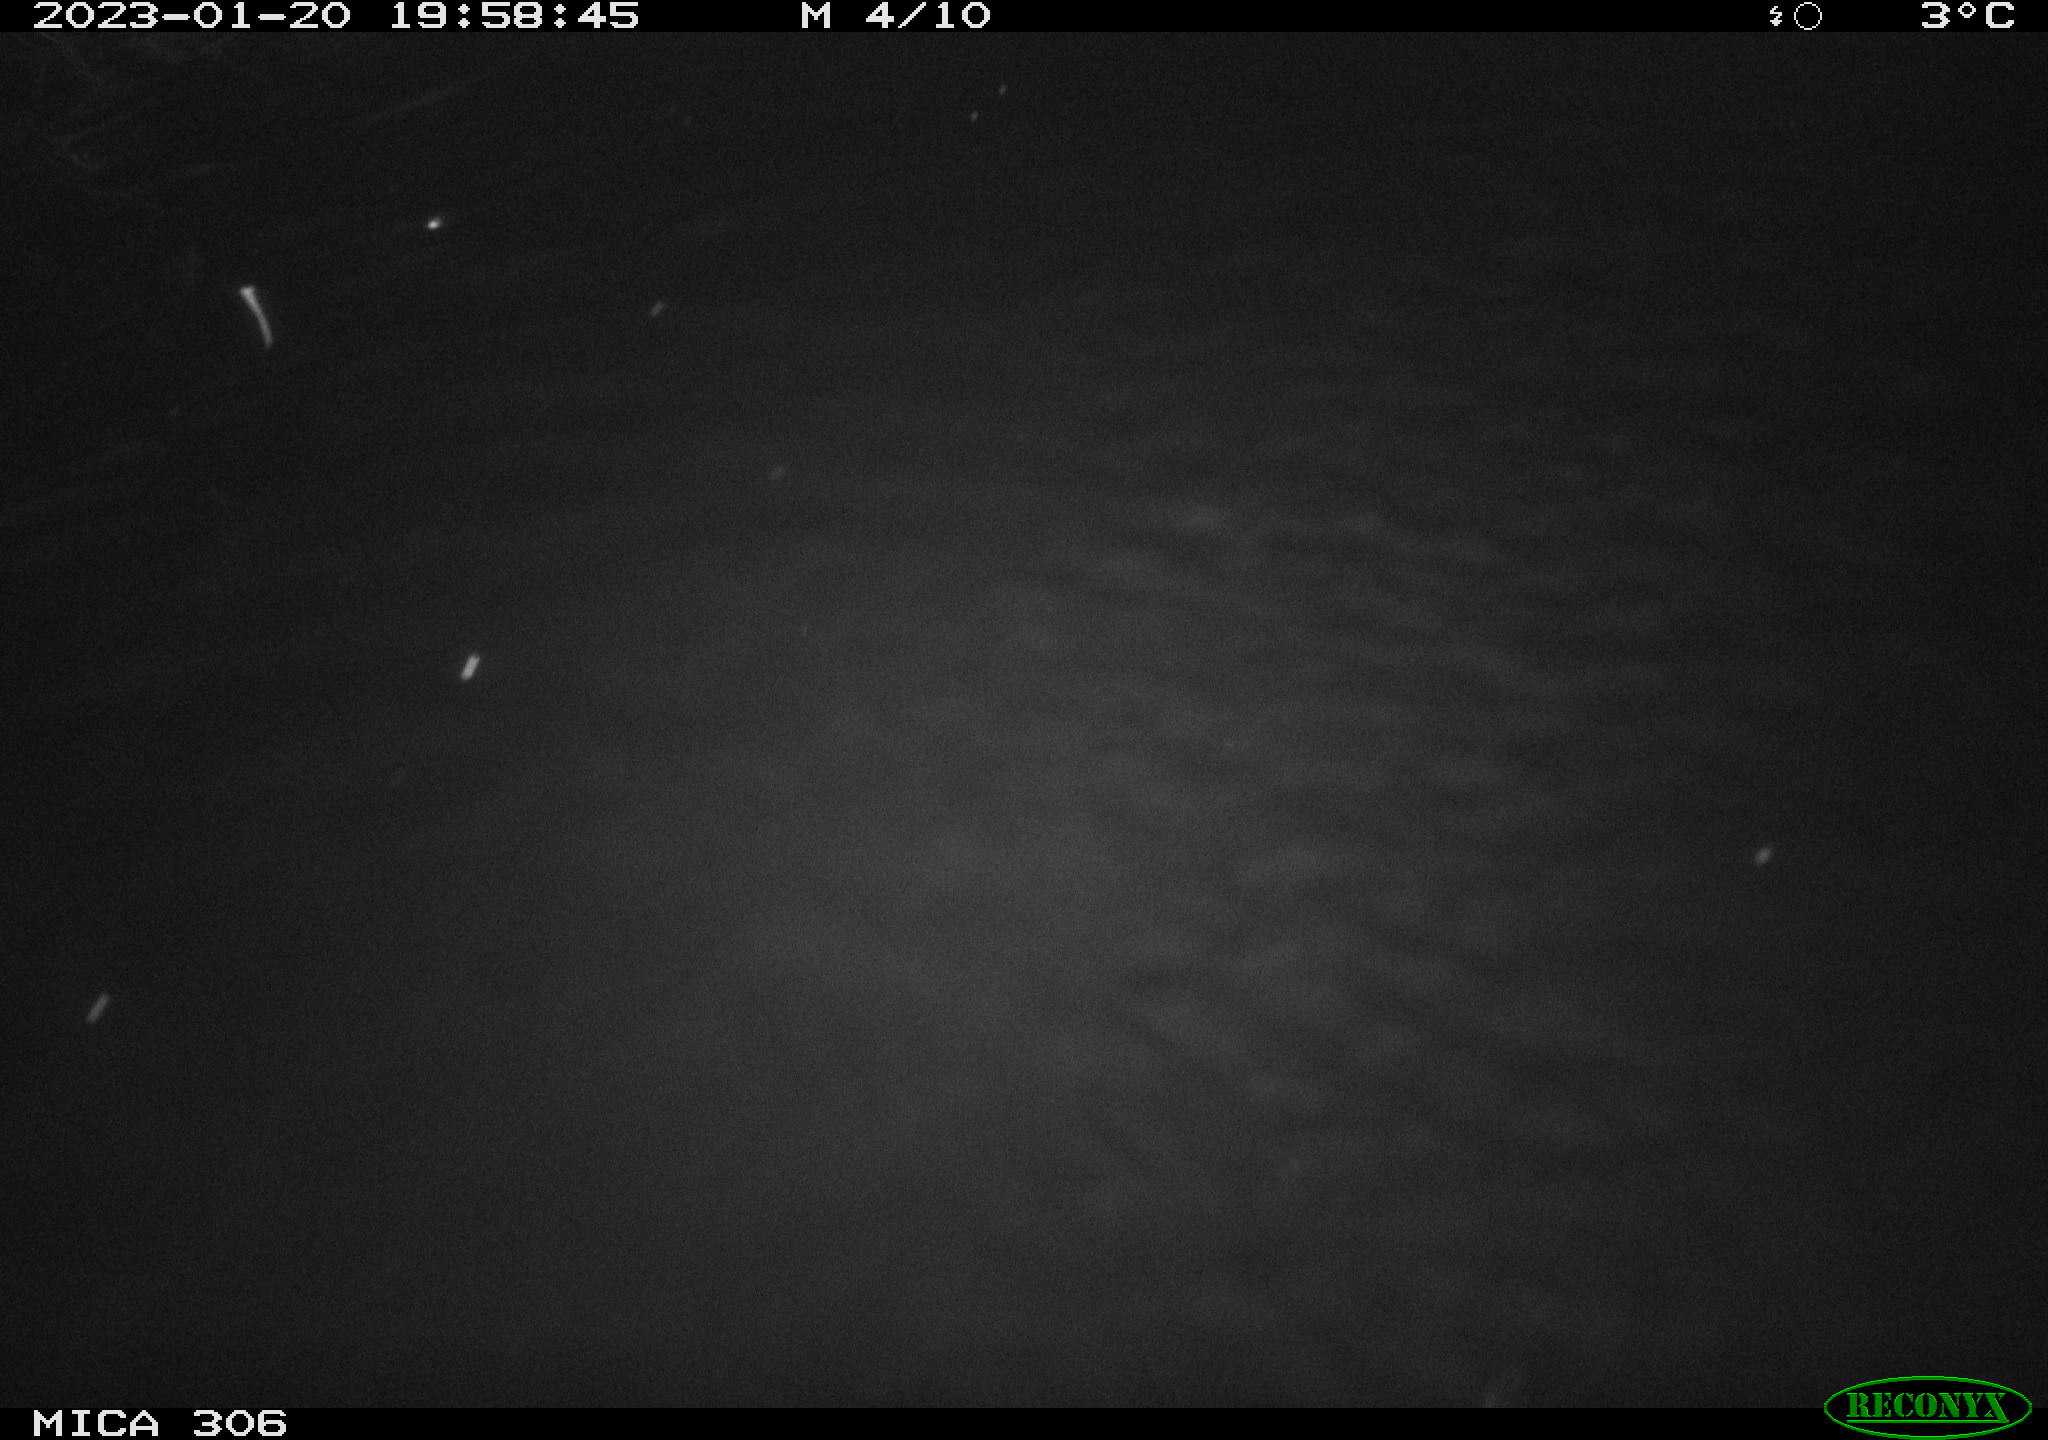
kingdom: Animalia
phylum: Chordata
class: Mammalia
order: Rodentia
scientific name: Rodentia
